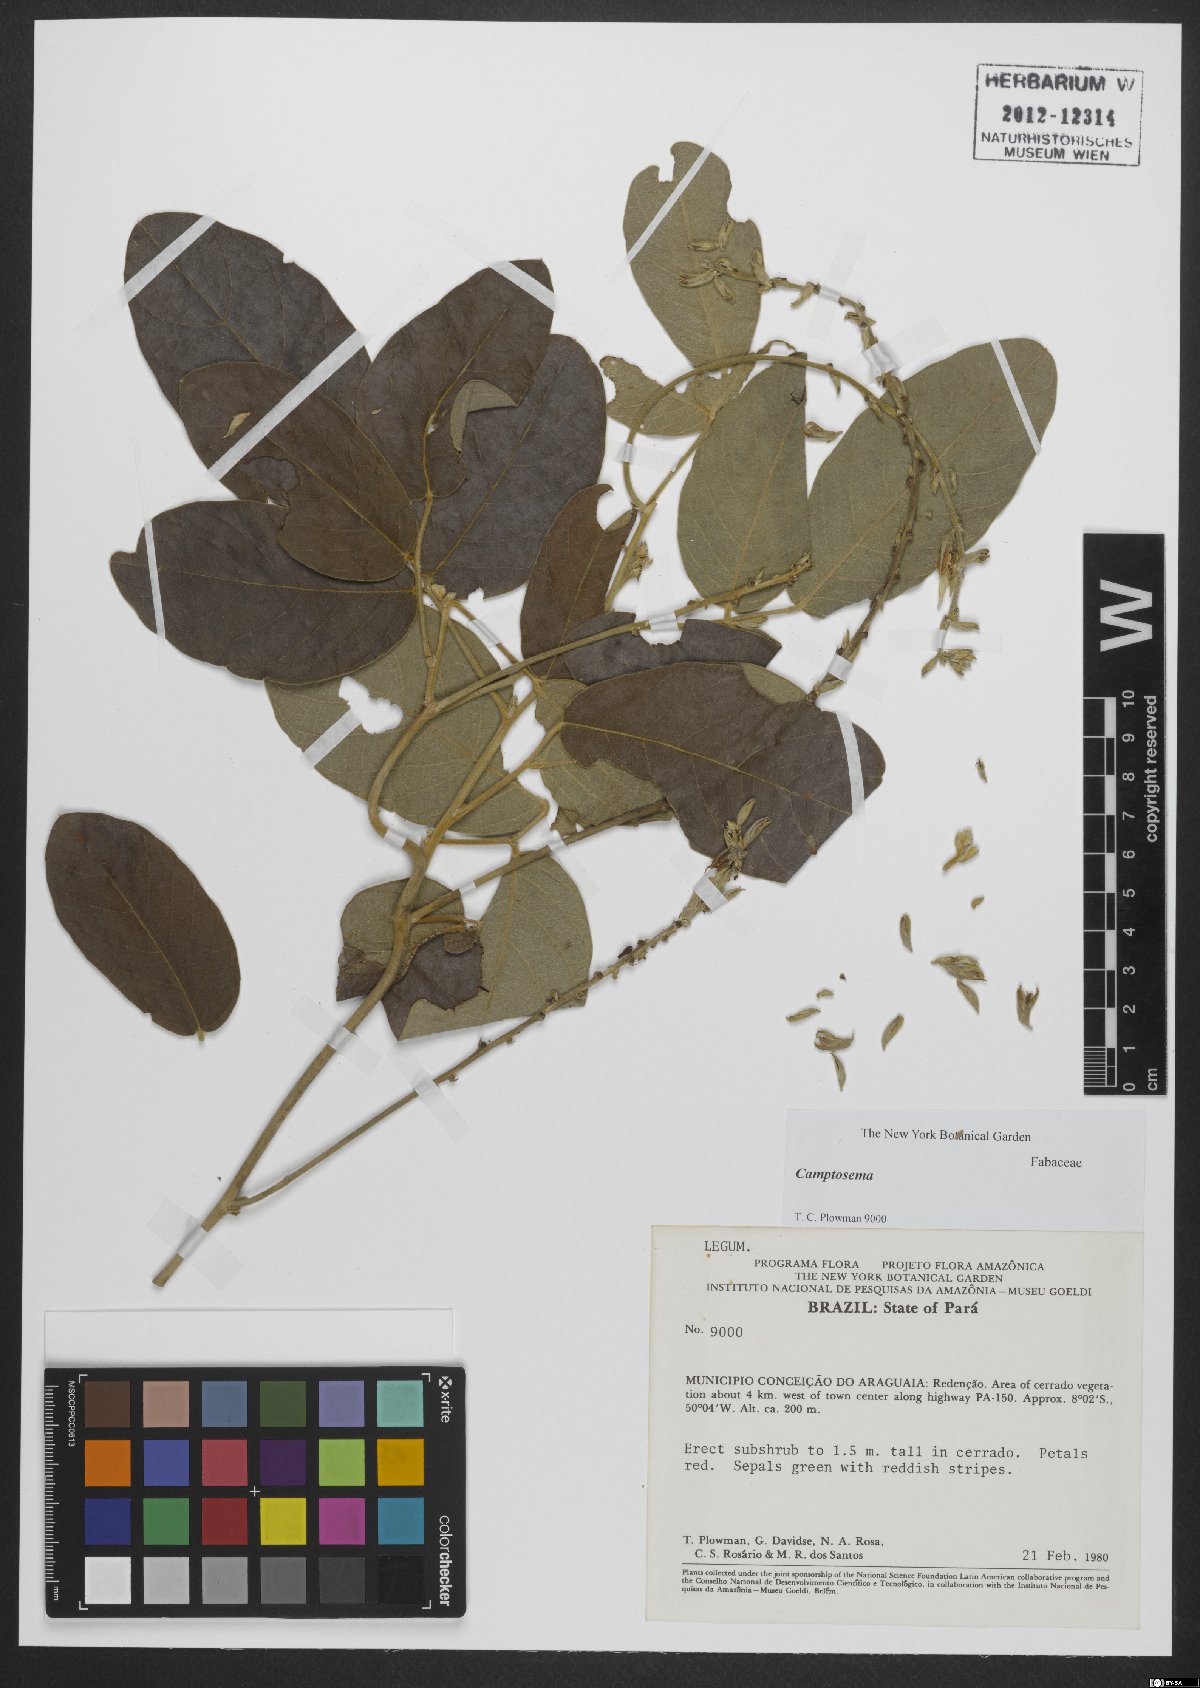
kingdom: Plantae
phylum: Tracheophyta
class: Magnoliopsida
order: Fabales
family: Fabaceae
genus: Camptosema
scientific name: Camptosema
